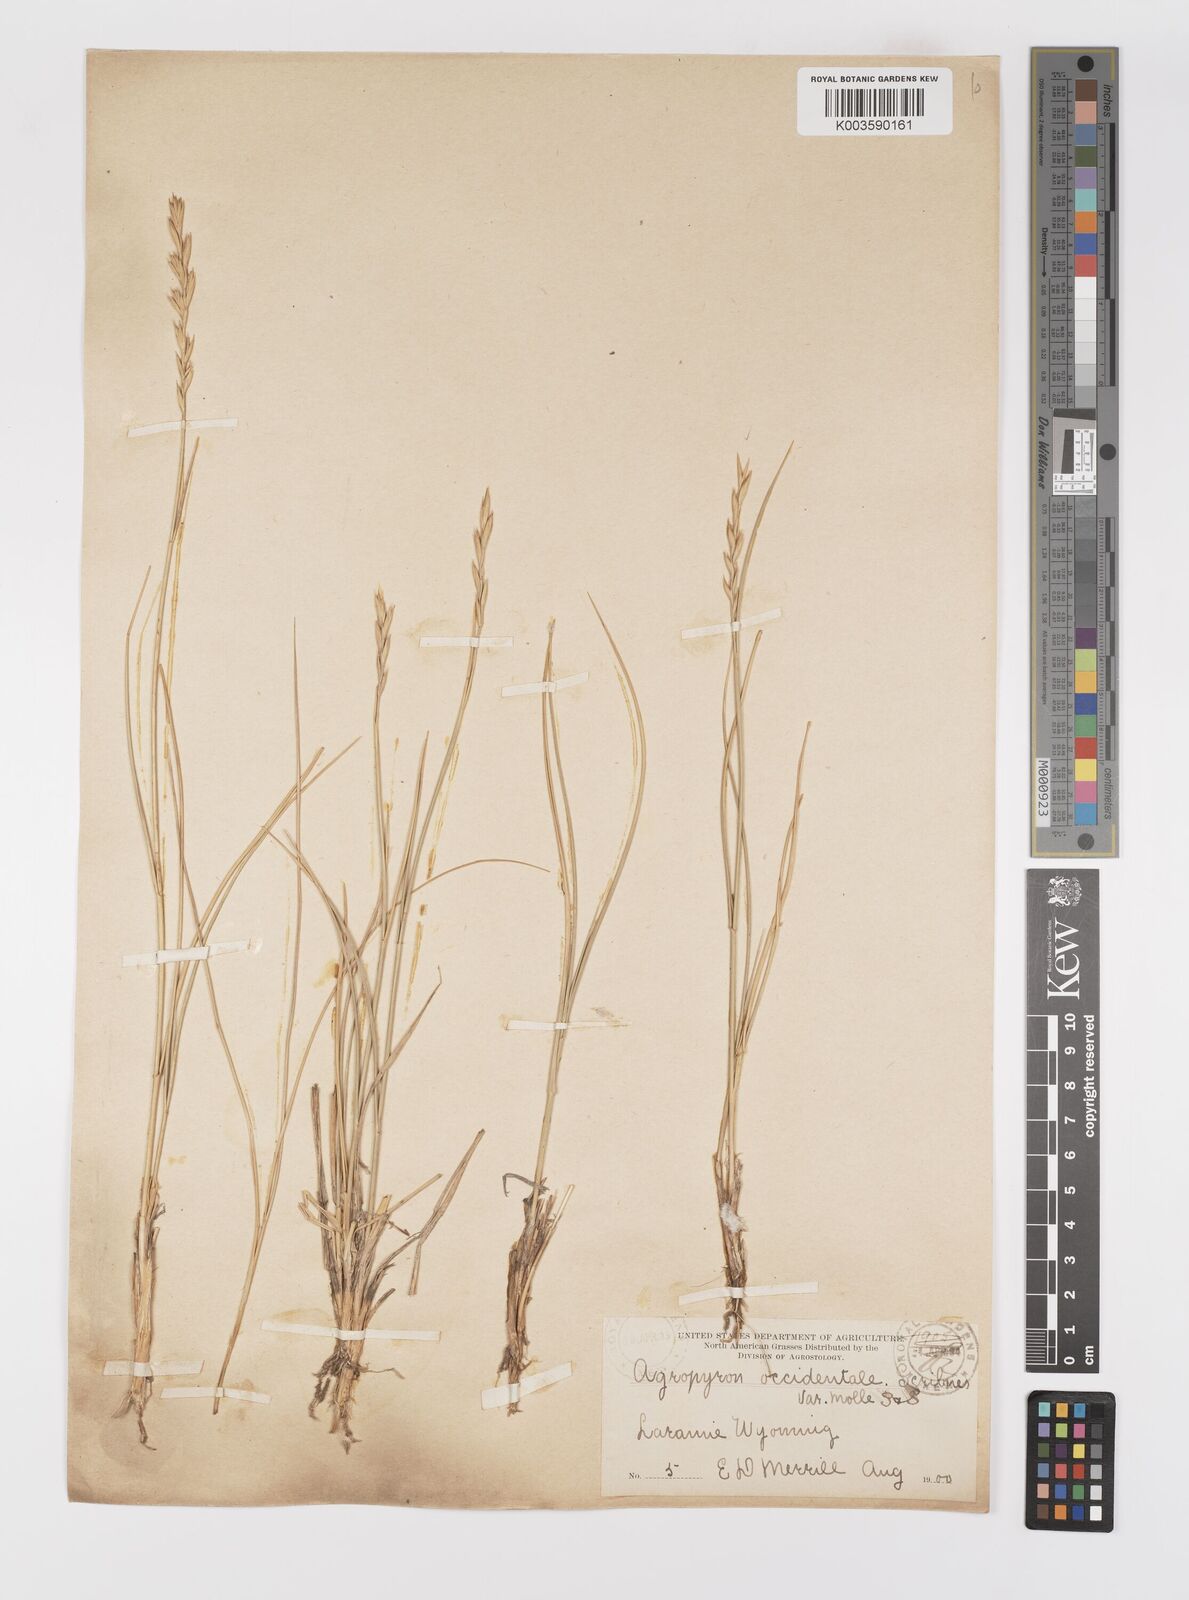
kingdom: Plantae
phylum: Tracheophyta
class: Liliopsida
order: Poales
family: Poaceae
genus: Elymus
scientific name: Elymus smithii
